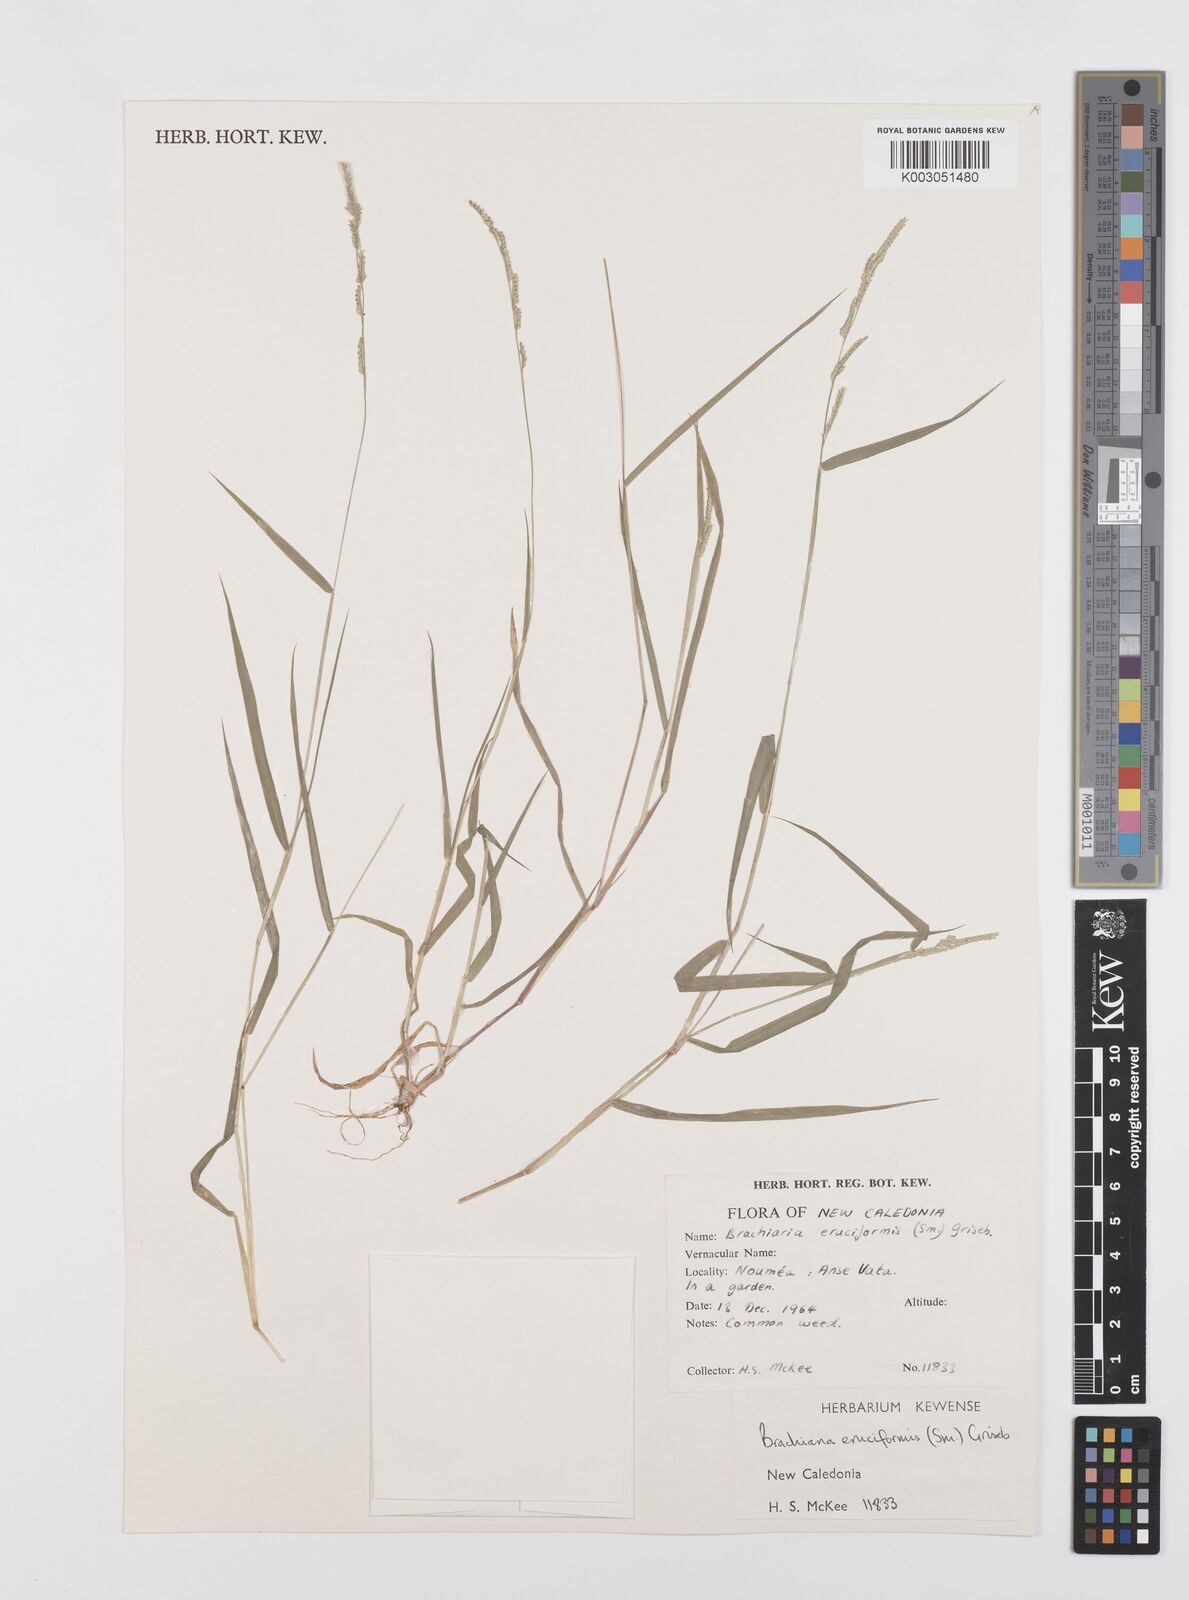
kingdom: Plantae
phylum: Tracheophyta
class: Liliopsida
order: Poales
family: Poaceae
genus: Moorochloa
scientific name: Moorochloa eruciformis
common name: Sweet signalgrass
